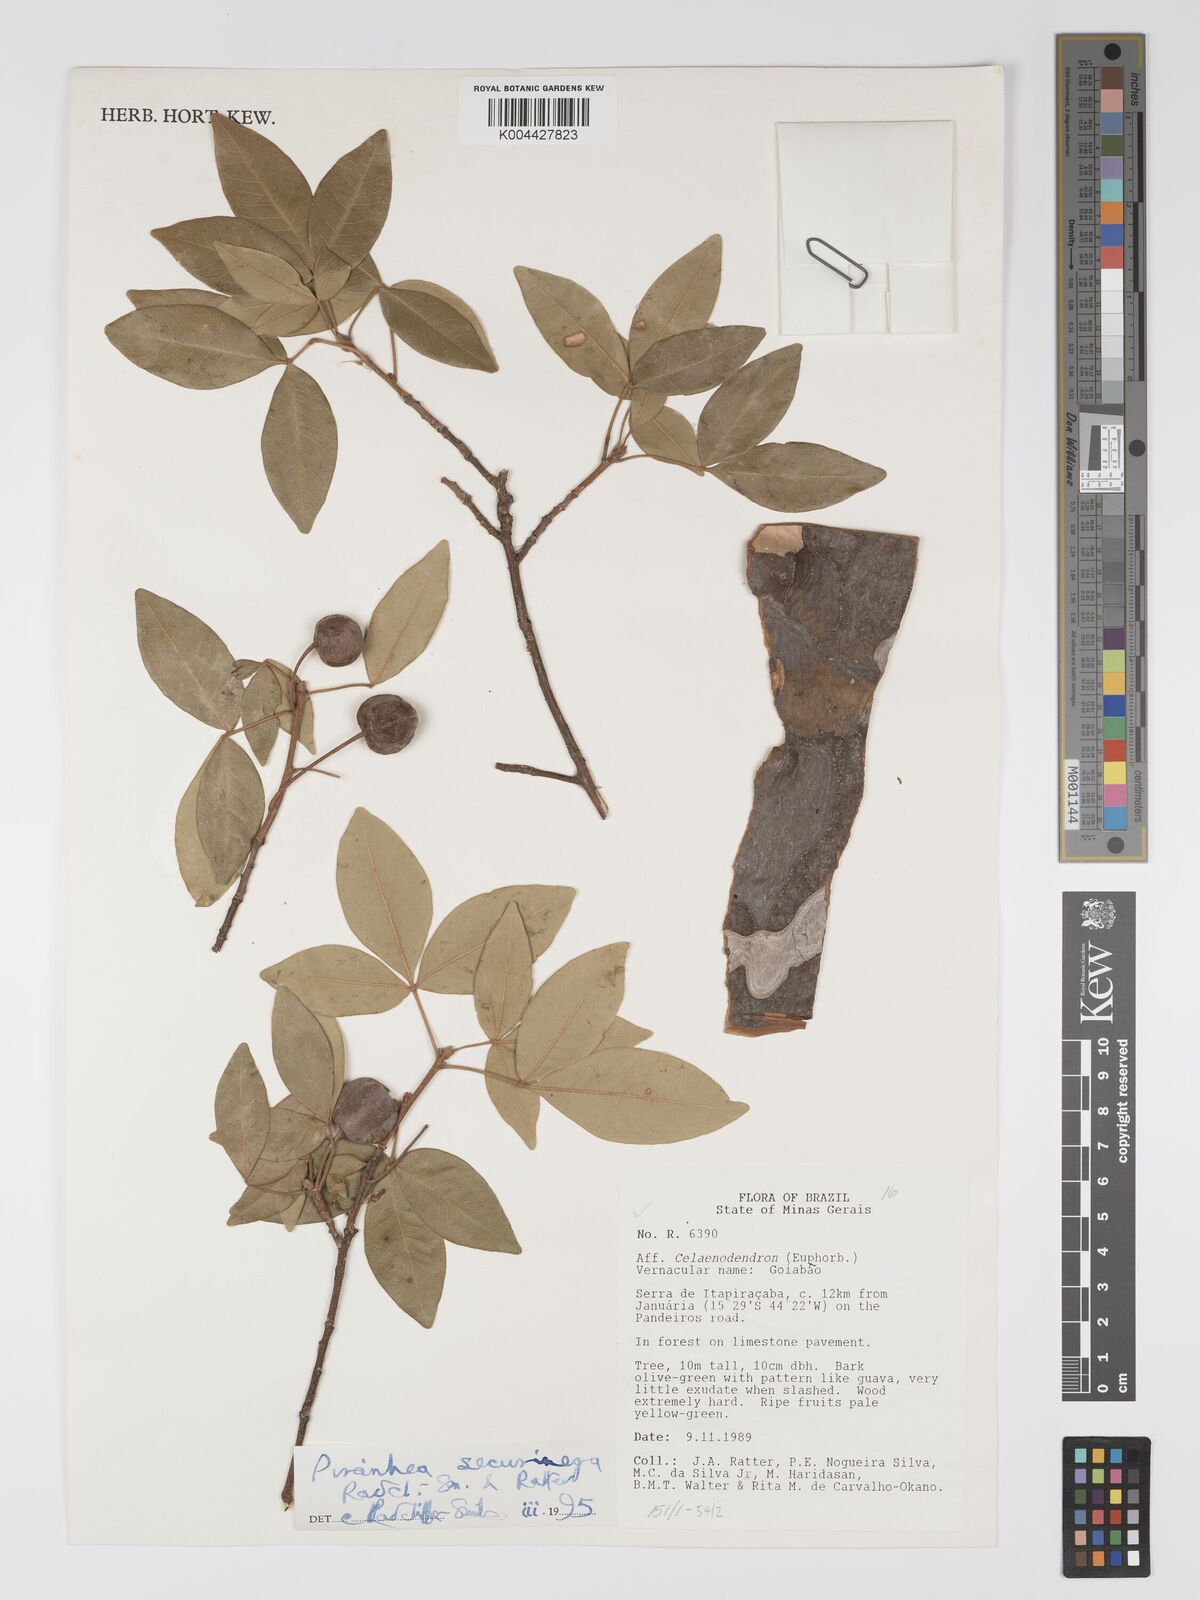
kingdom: Plantae
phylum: Tracheophyta
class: Magnoliopsida
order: Malpighiales
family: Picrodendraceae
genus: Piranhea
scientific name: Piranhea securinega
